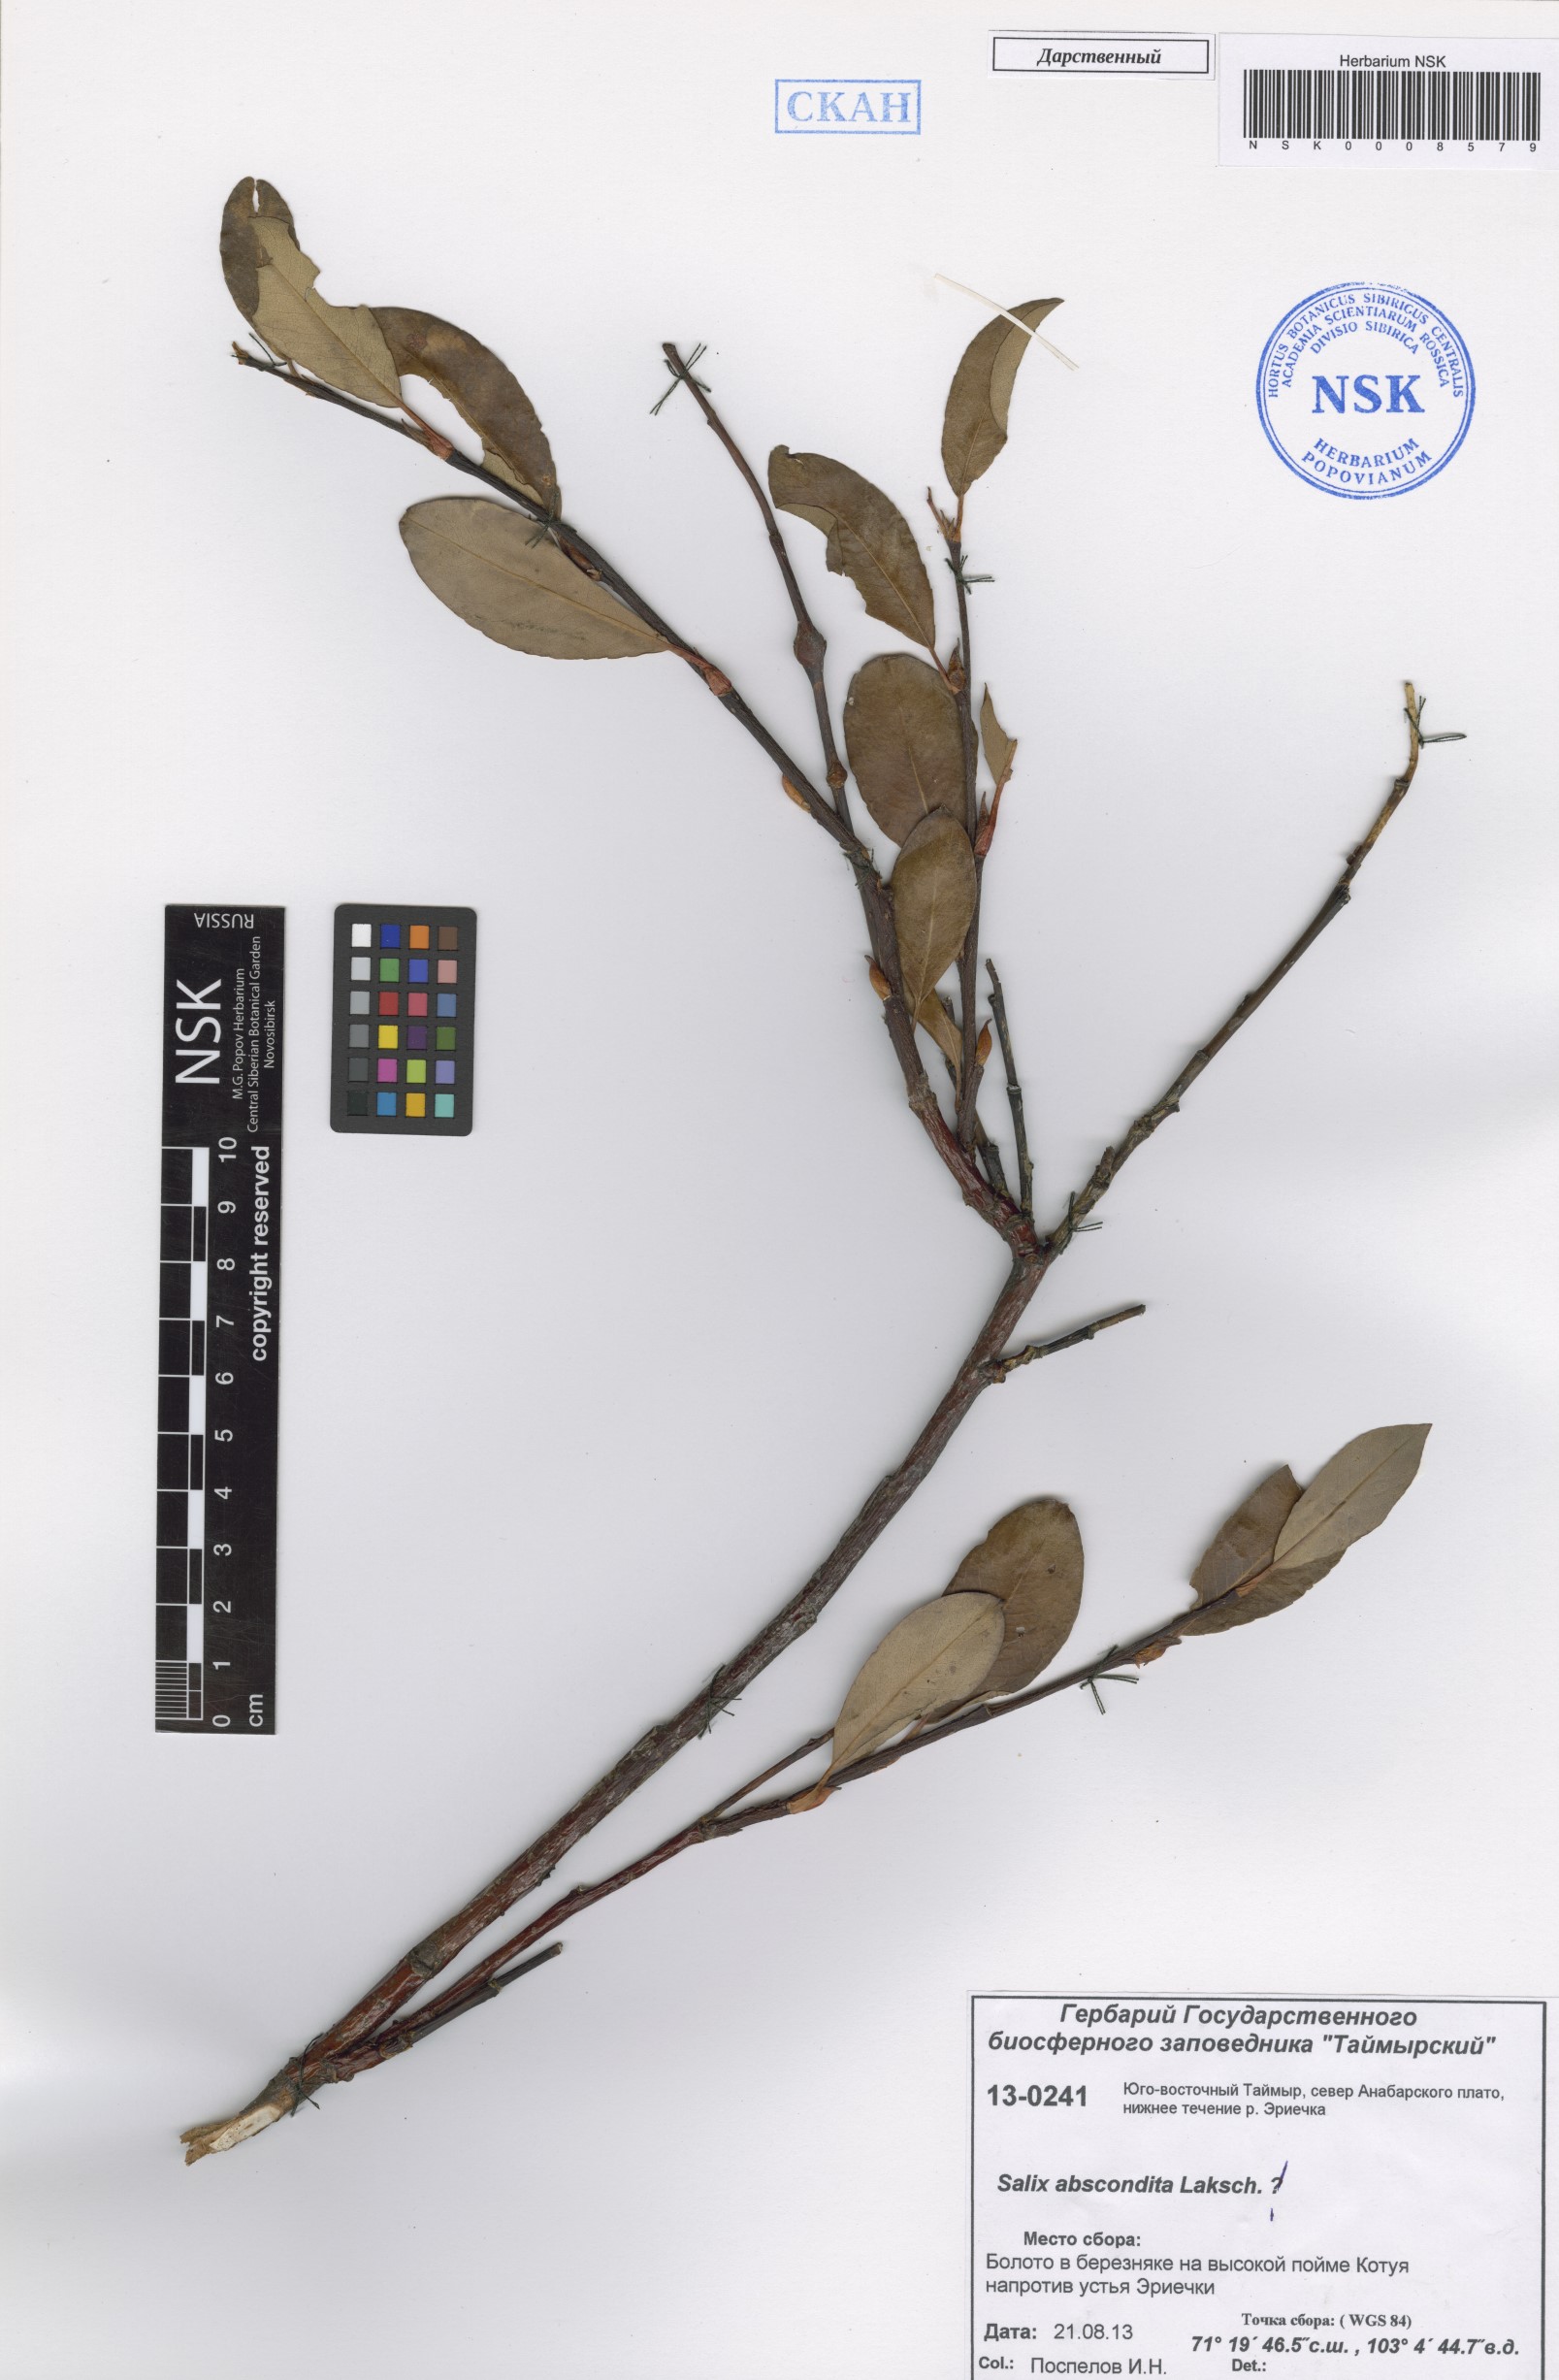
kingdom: Plantae
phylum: Tracheophyta
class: Magnoliopsida
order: Malpighiales
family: Salicaceae
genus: Salix
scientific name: Salix abscondita
